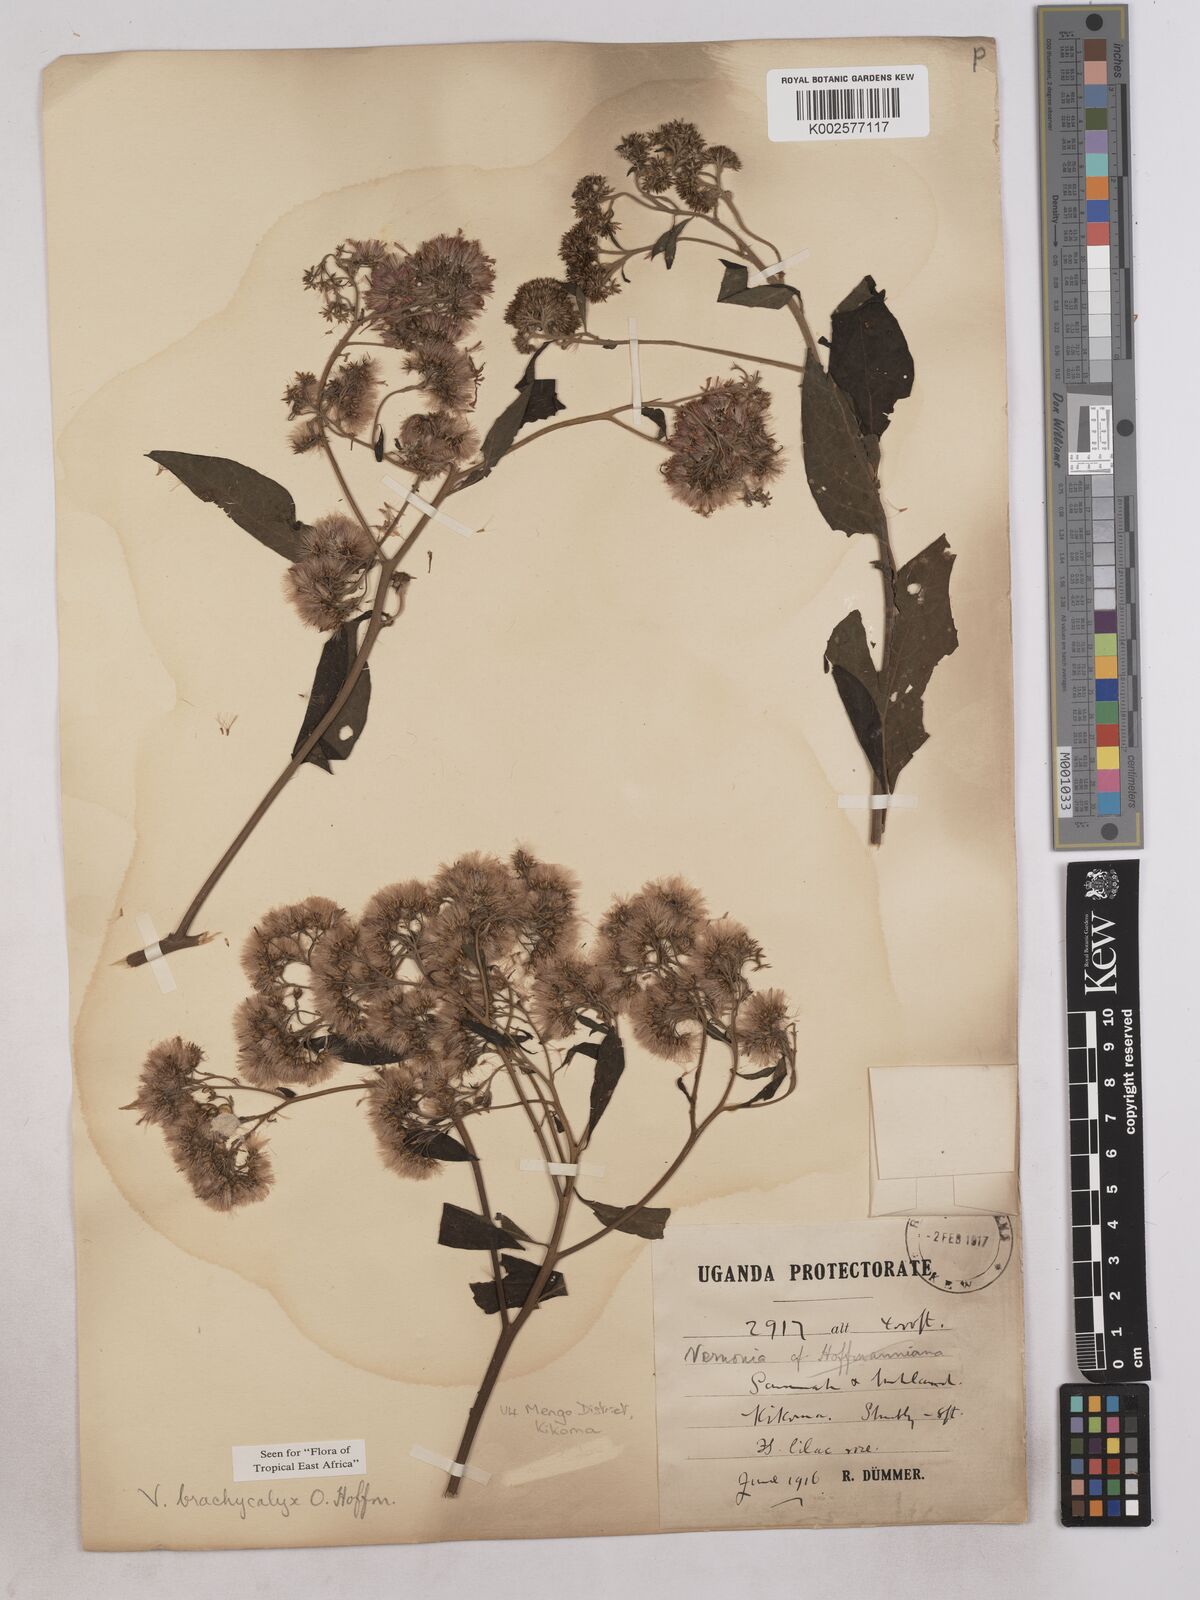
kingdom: Plantae
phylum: Tracheophyta
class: Magnoliopsida
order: Asterales
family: Asteraceae
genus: Hoffmannanthus
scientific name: Hoffmannanthus abbotianus
